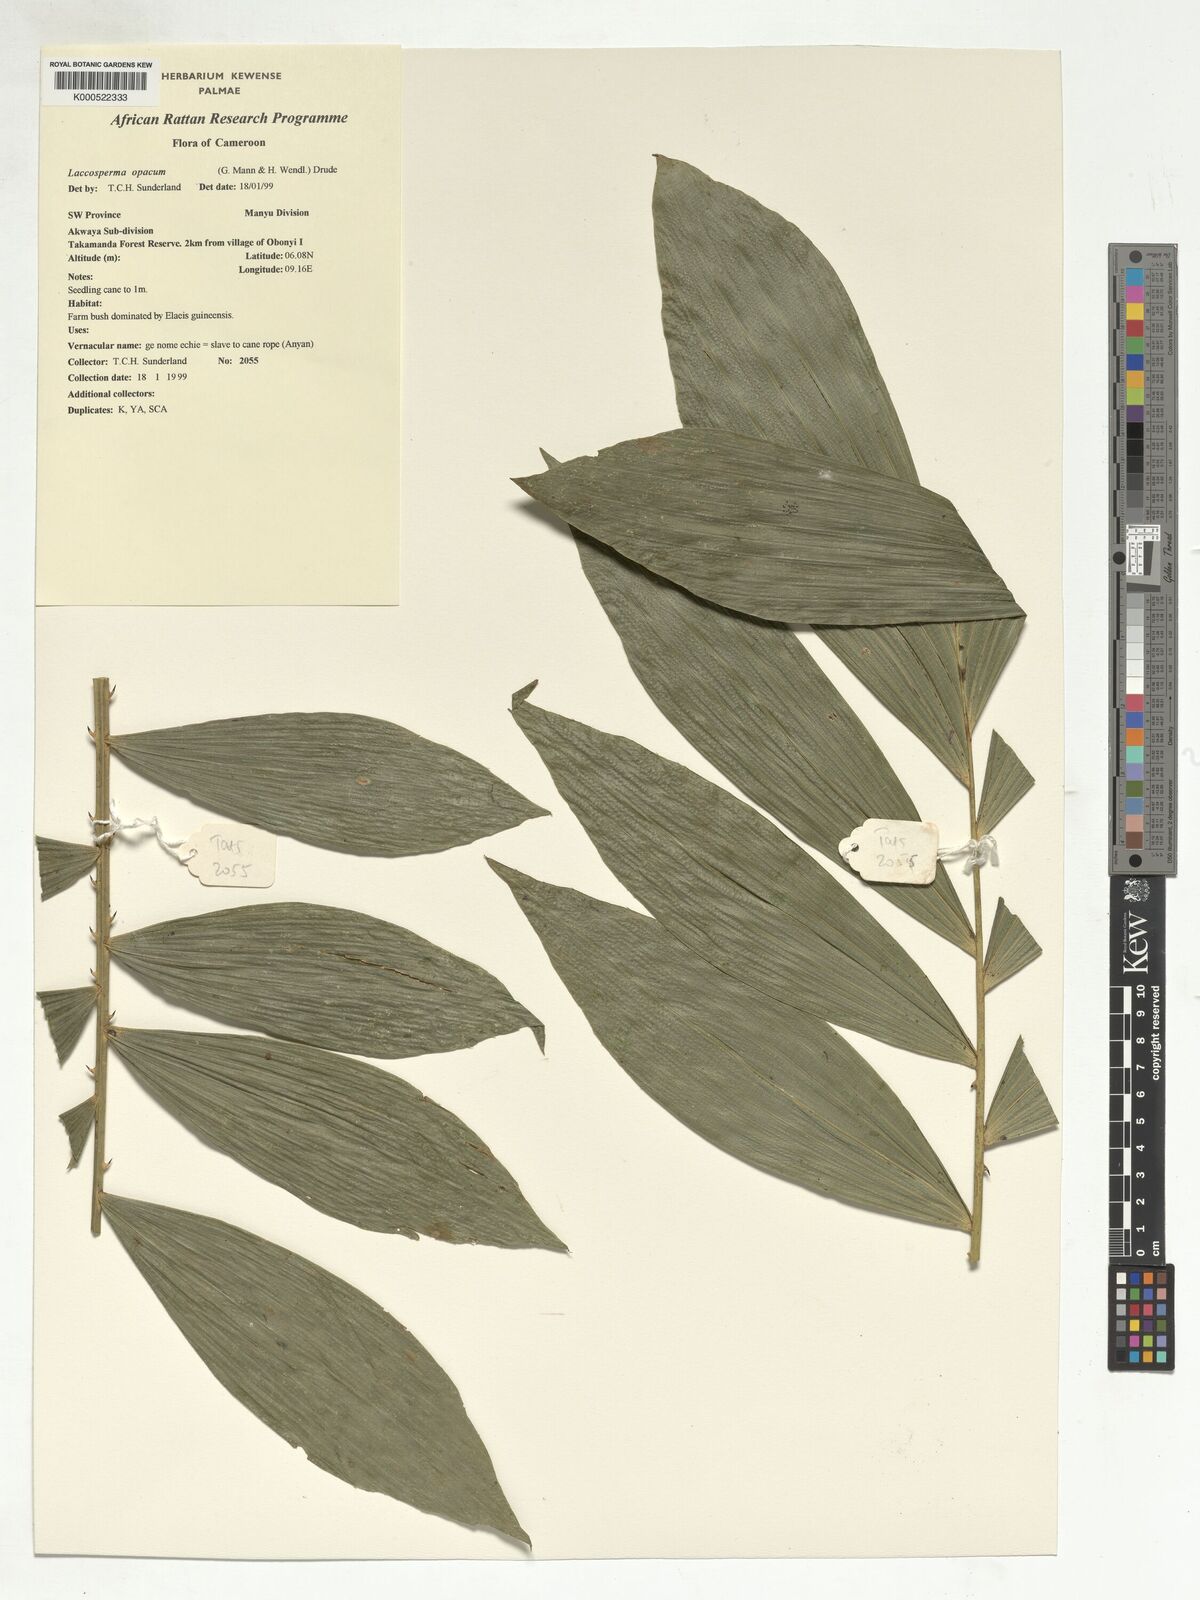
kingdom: Plantae
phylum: Tracheophyta
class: Liliopsida
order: Arecales
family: Arecaceae
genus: Laccosperma
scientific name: Laccosperma opacum
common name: Rattan
